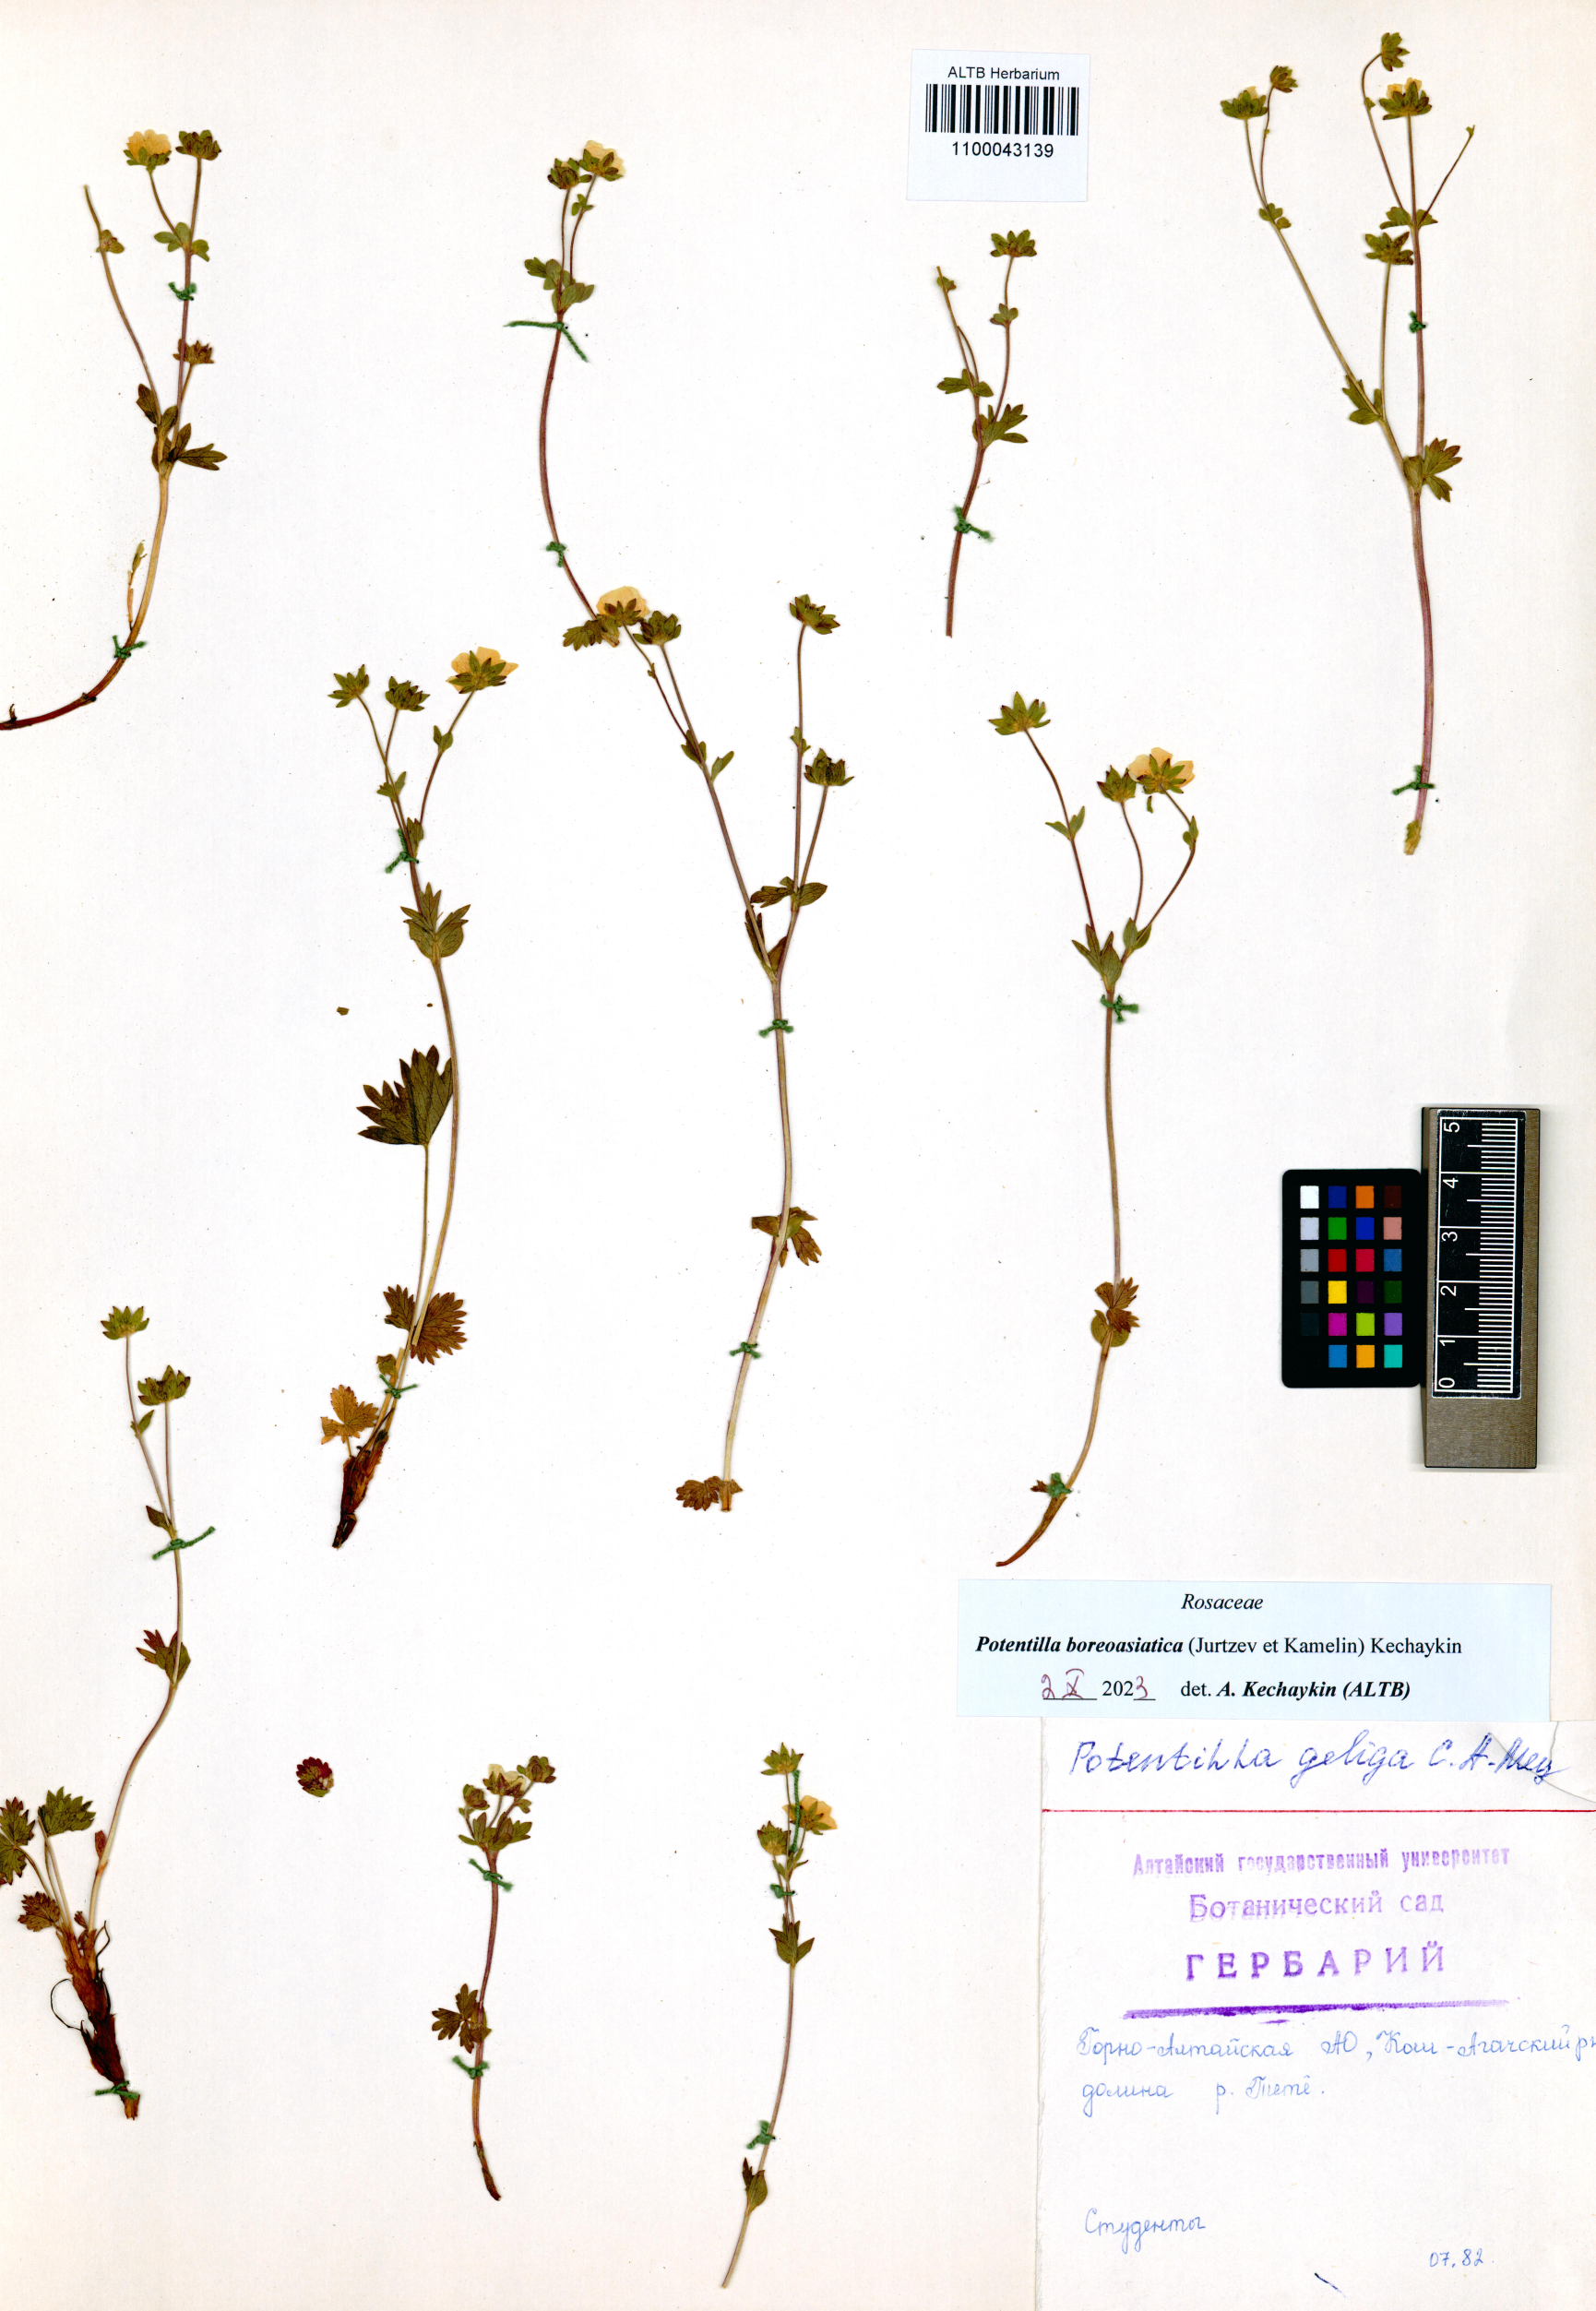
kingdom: Plantae
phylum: Tracheophyta
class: Magnoliopsida
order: Rosales
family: Rosaceae
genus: Potentilla
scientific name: Potentilla
